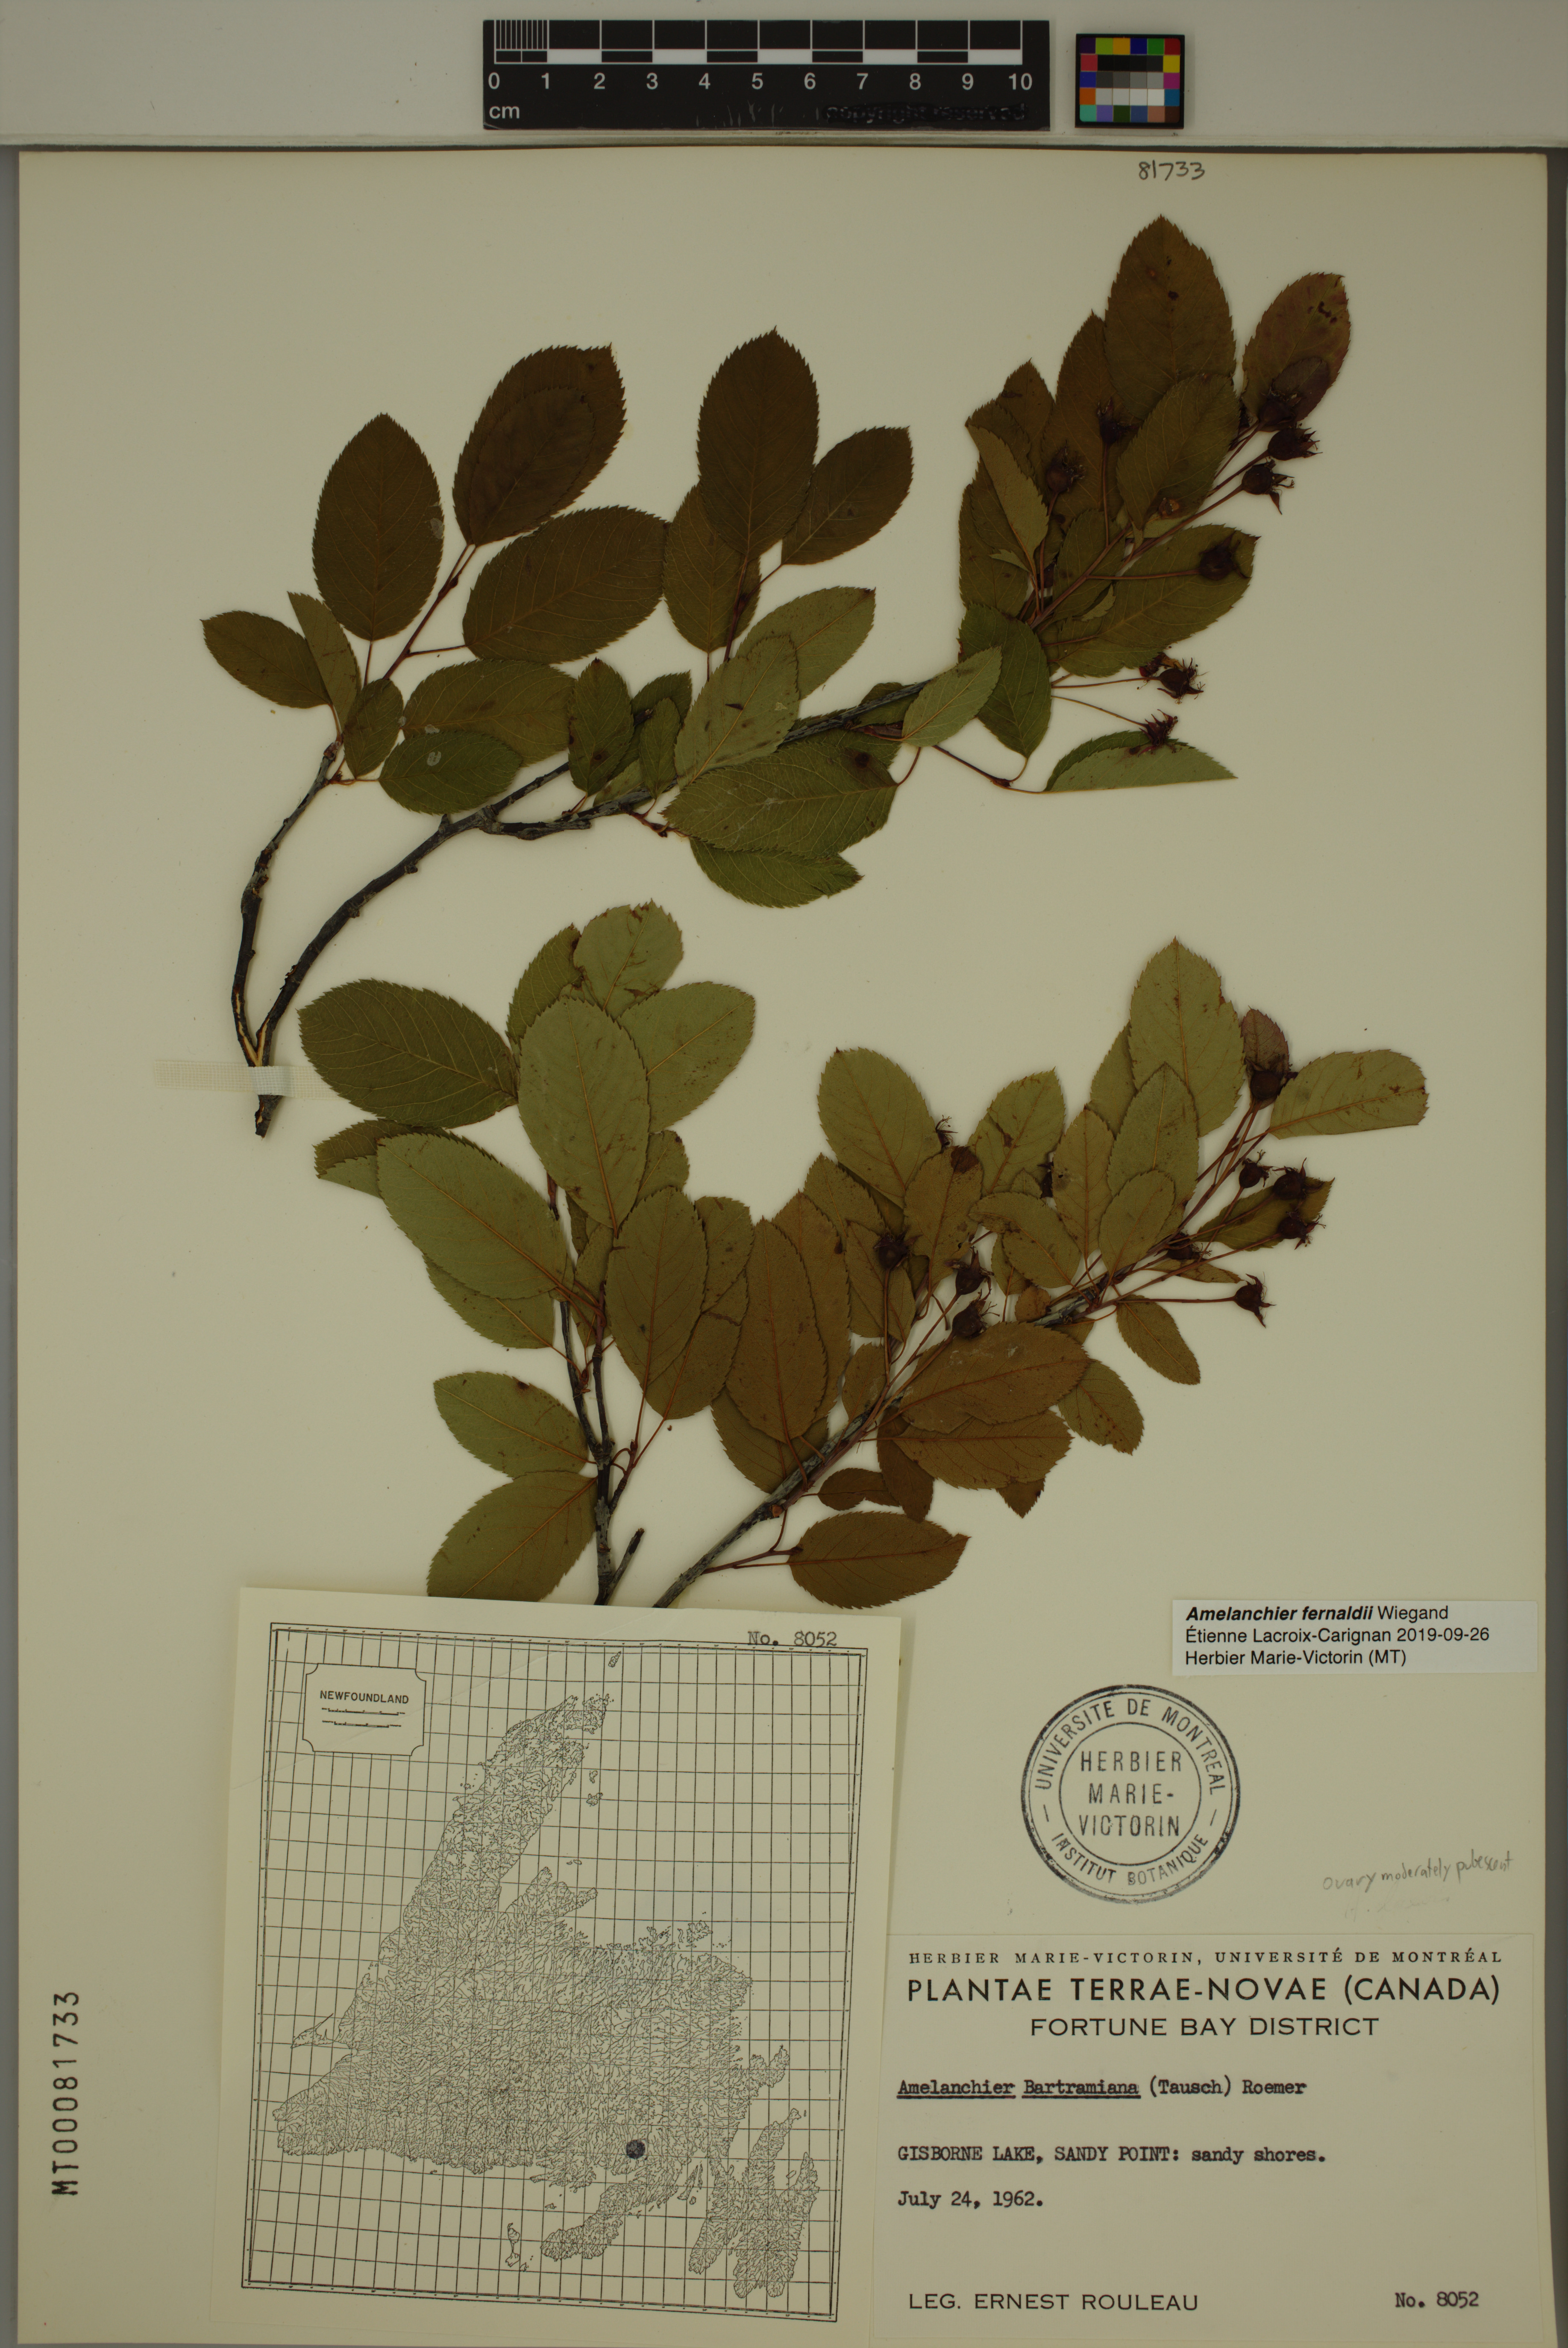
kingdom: Plantae
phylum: Tracheophyta
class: Magnoliopsida
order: Rosales
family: Rosaceae
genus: Amelanchier
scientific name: Amelanchier canadensis
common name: Thicket serviceberry
